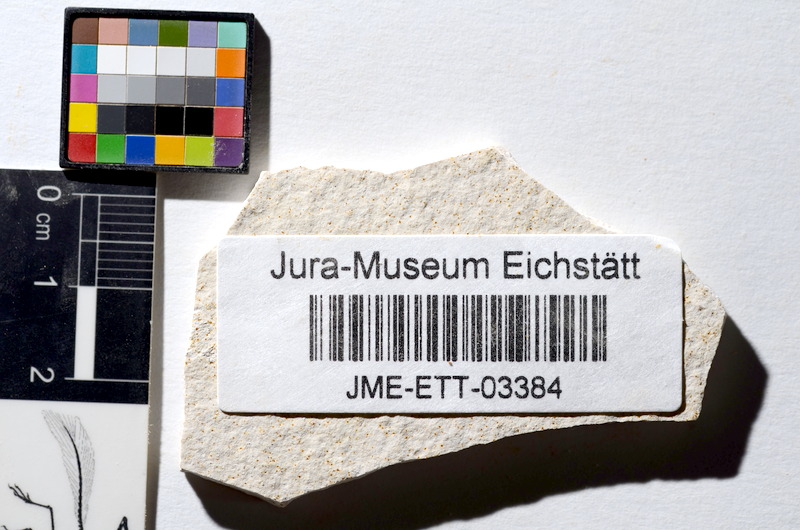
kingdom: Animalia
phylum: Chordata
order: Salmoniformes
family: Orthogonikleithridae
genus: Orthogonikleithrus
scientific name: Orthogonikleithrus hoelli
